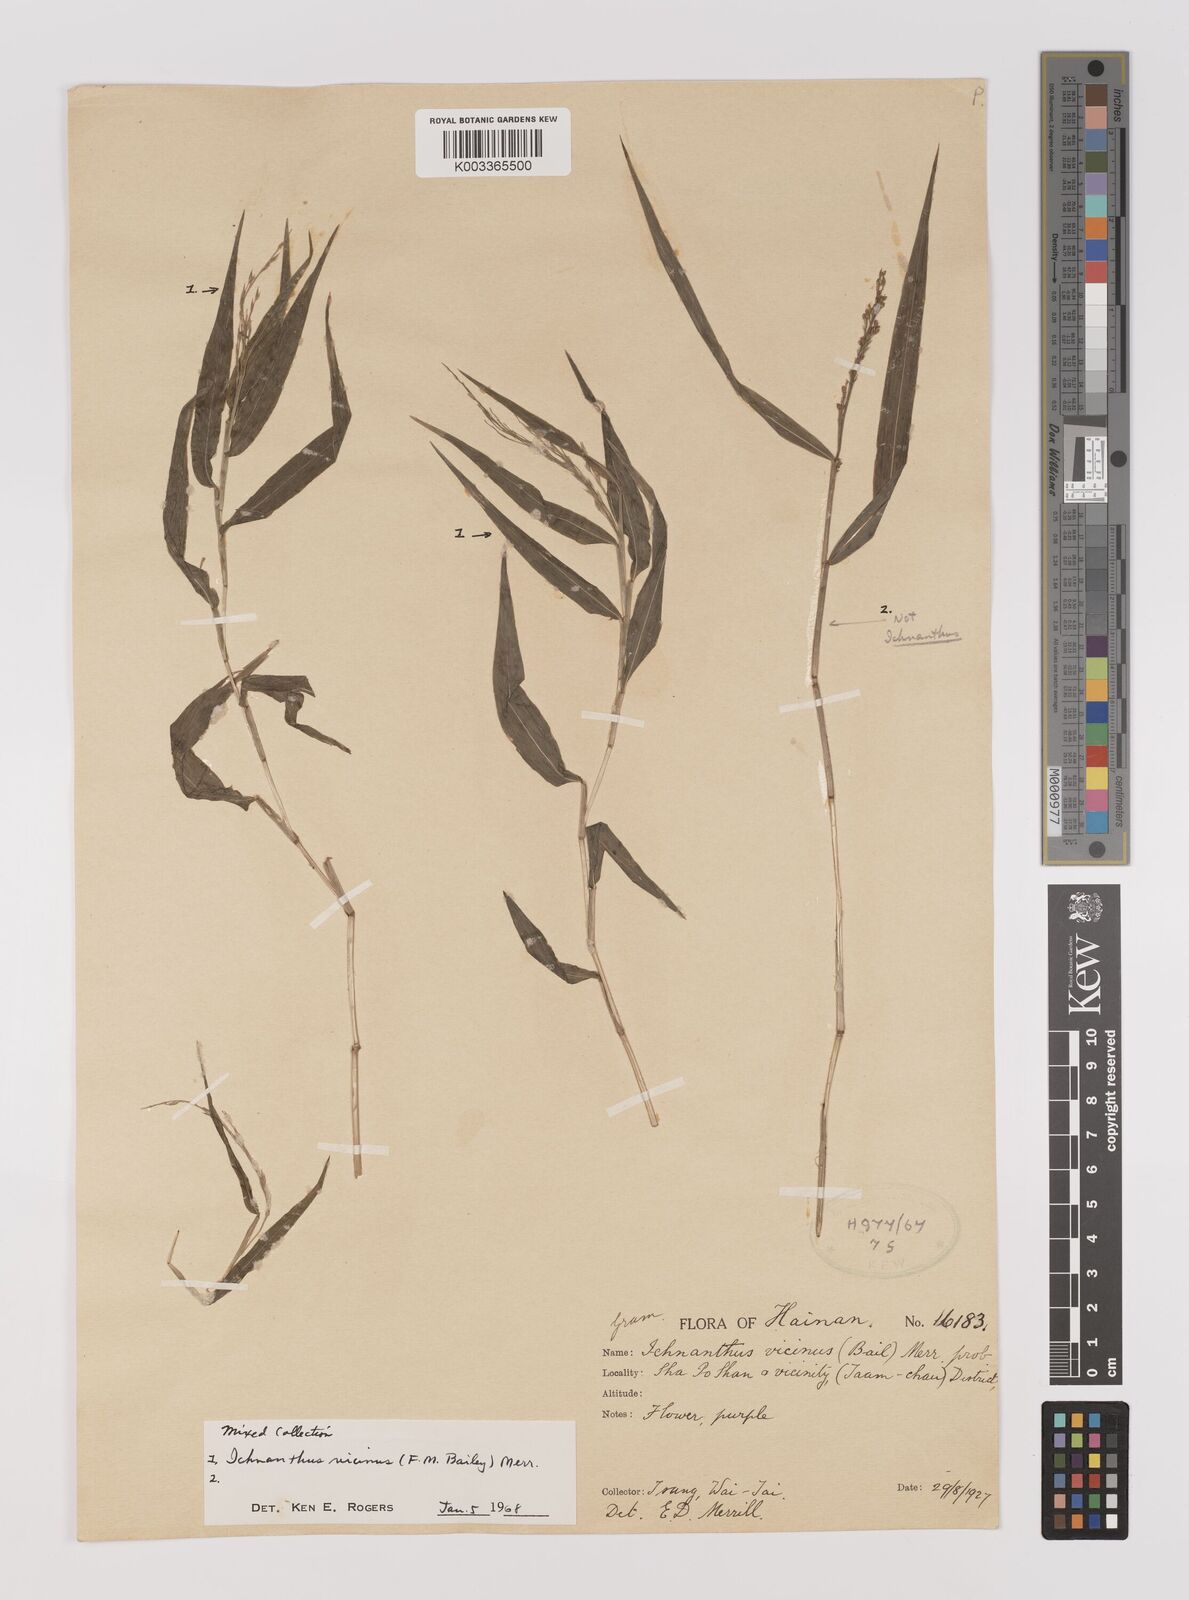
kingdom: Plantae
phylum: Tracheophyta
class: Liliopsida
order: Poales
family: Poaceae
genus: Ichnanthus
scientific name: Ichnanthus
